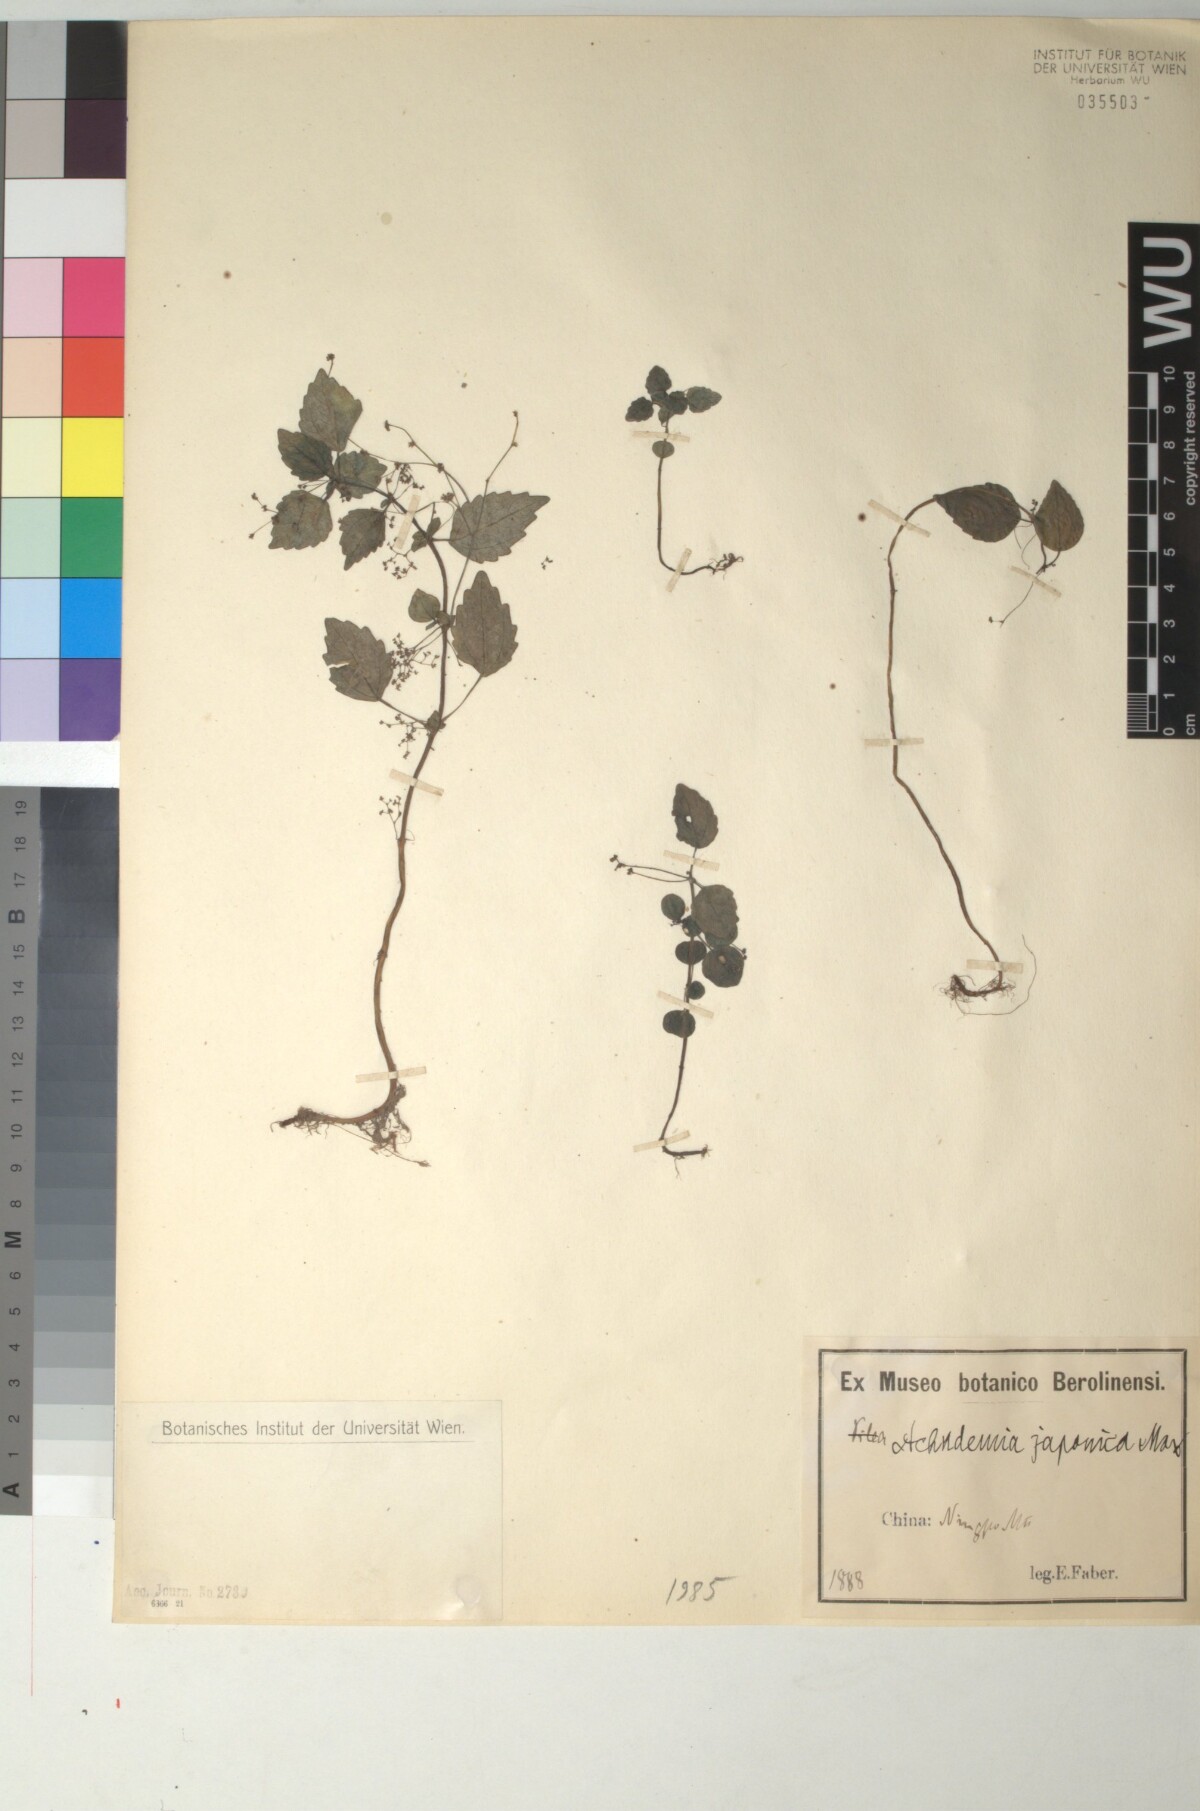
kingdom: Plantae
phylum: Tracheophyta
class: Magnoliopsida
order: Rosales
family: Urticaceae
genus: Achudemia
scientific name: Achudemia japonica
